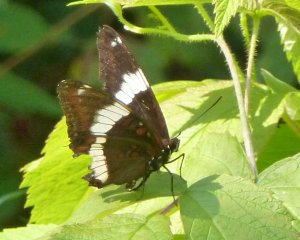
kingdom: Animalia
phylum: Arthropoda
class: Insecta
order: Lepidoptera
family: Nymphalidae
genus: Limenitis
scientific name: Limenitis arthemis
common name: Red-spotted Admiral
